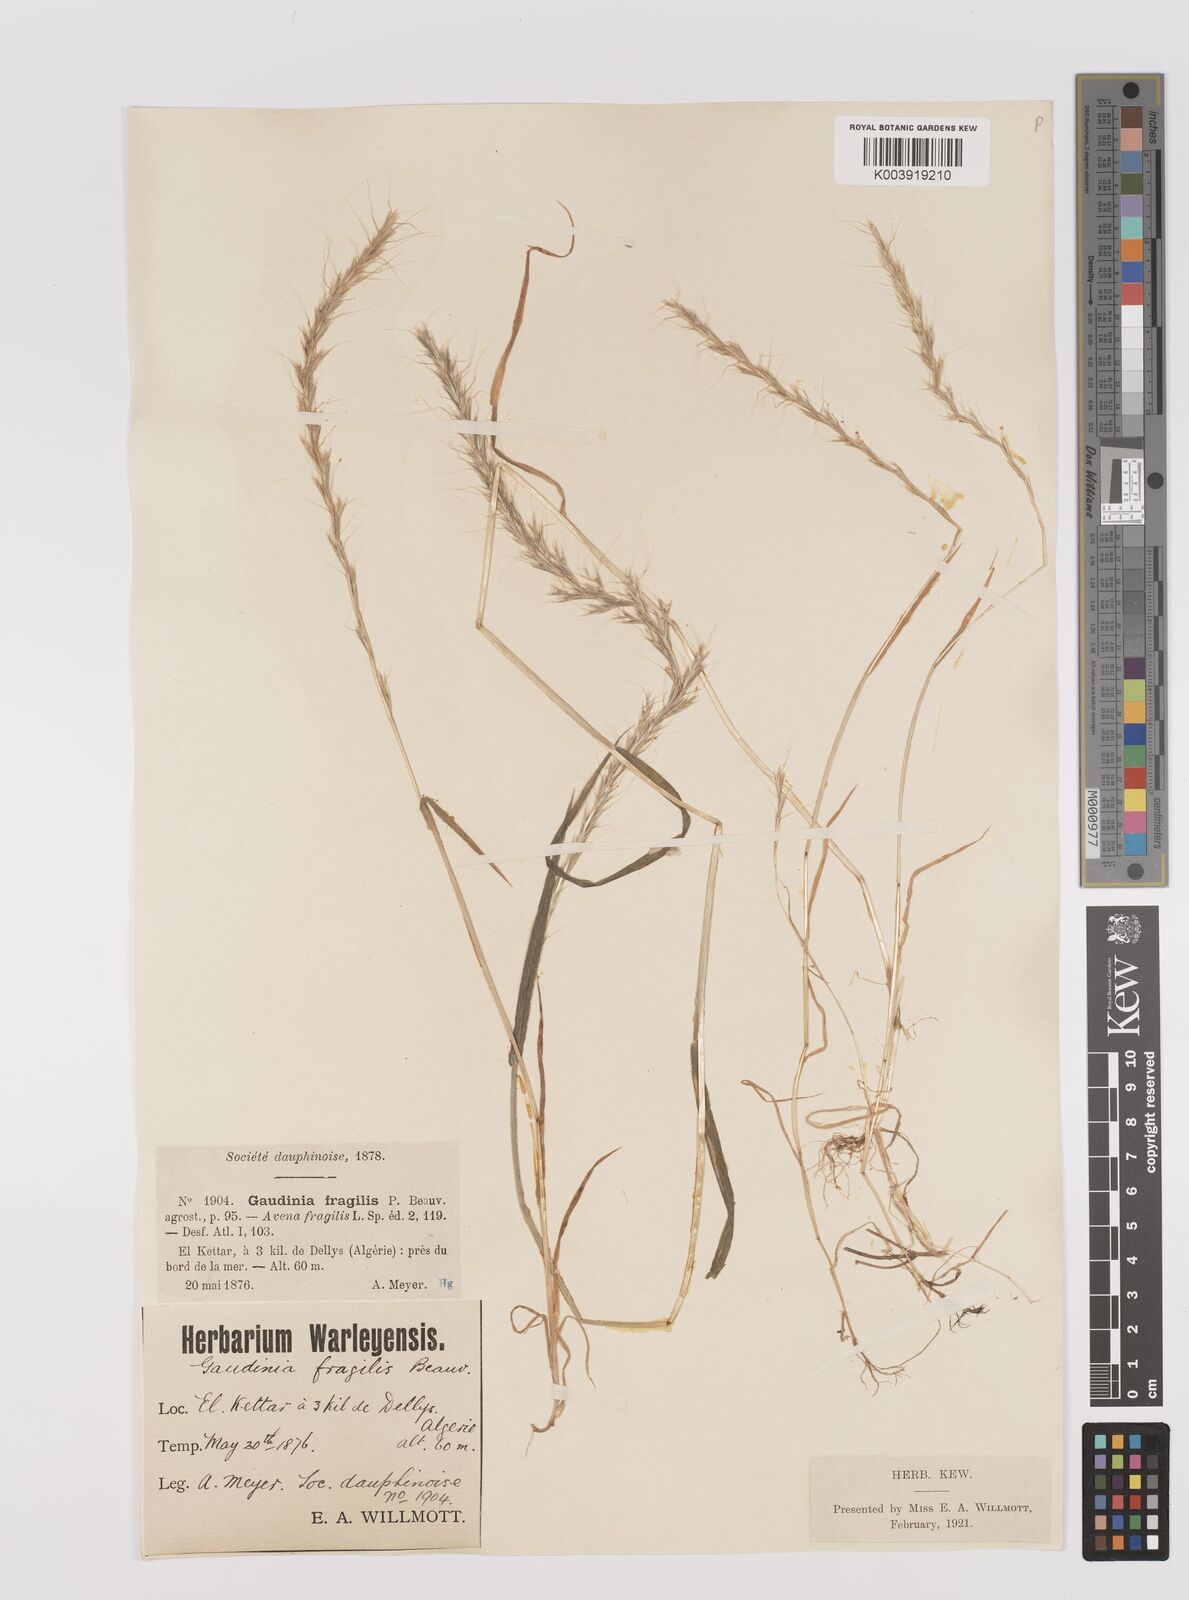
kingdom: Plantae
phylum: Tracheophyta
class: Liliopsida
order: Poales
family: Poaceae
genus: Gaudinia
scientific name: Gaudinia fragilis
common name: French oat-grass
